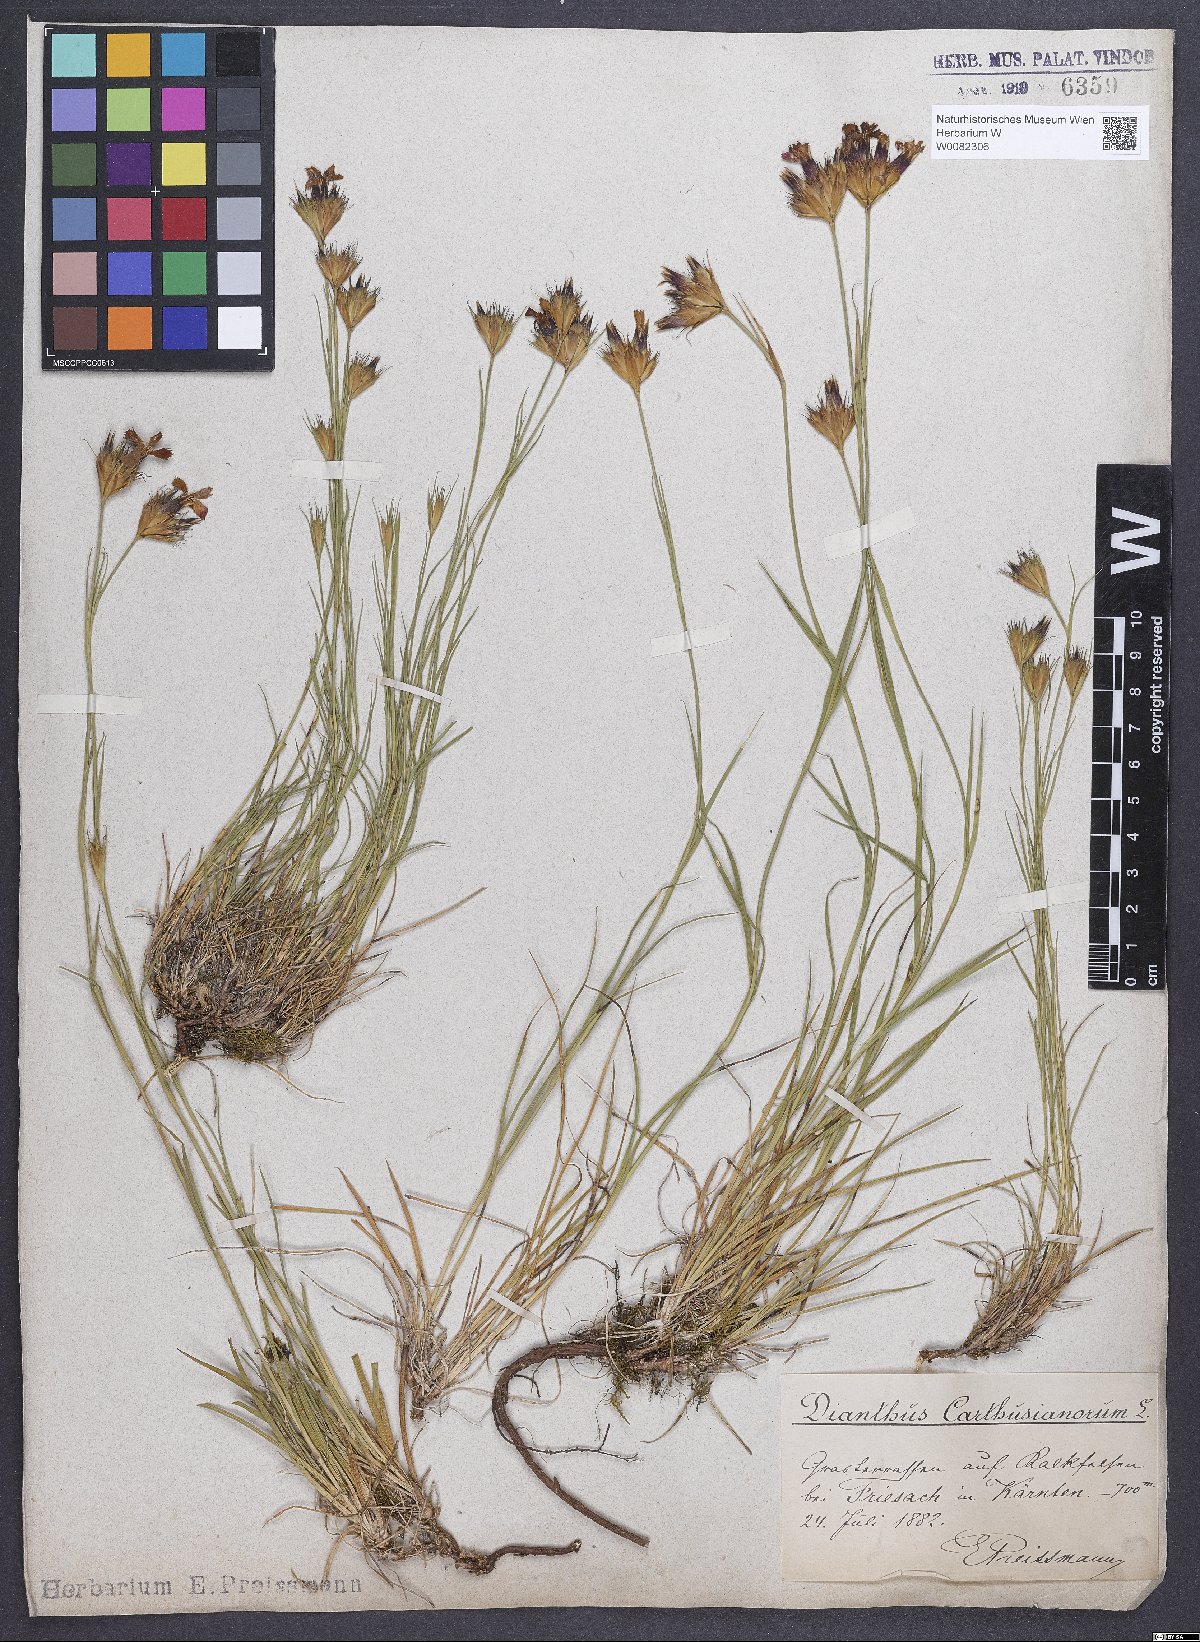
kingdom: Plantae
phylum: Tracheophyta
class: Magnoliopsida
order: Caryophyllales
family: Caryophyllaceae
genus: Dianthus
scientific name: Dianthus carthusianorum
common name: Carthusian pink
